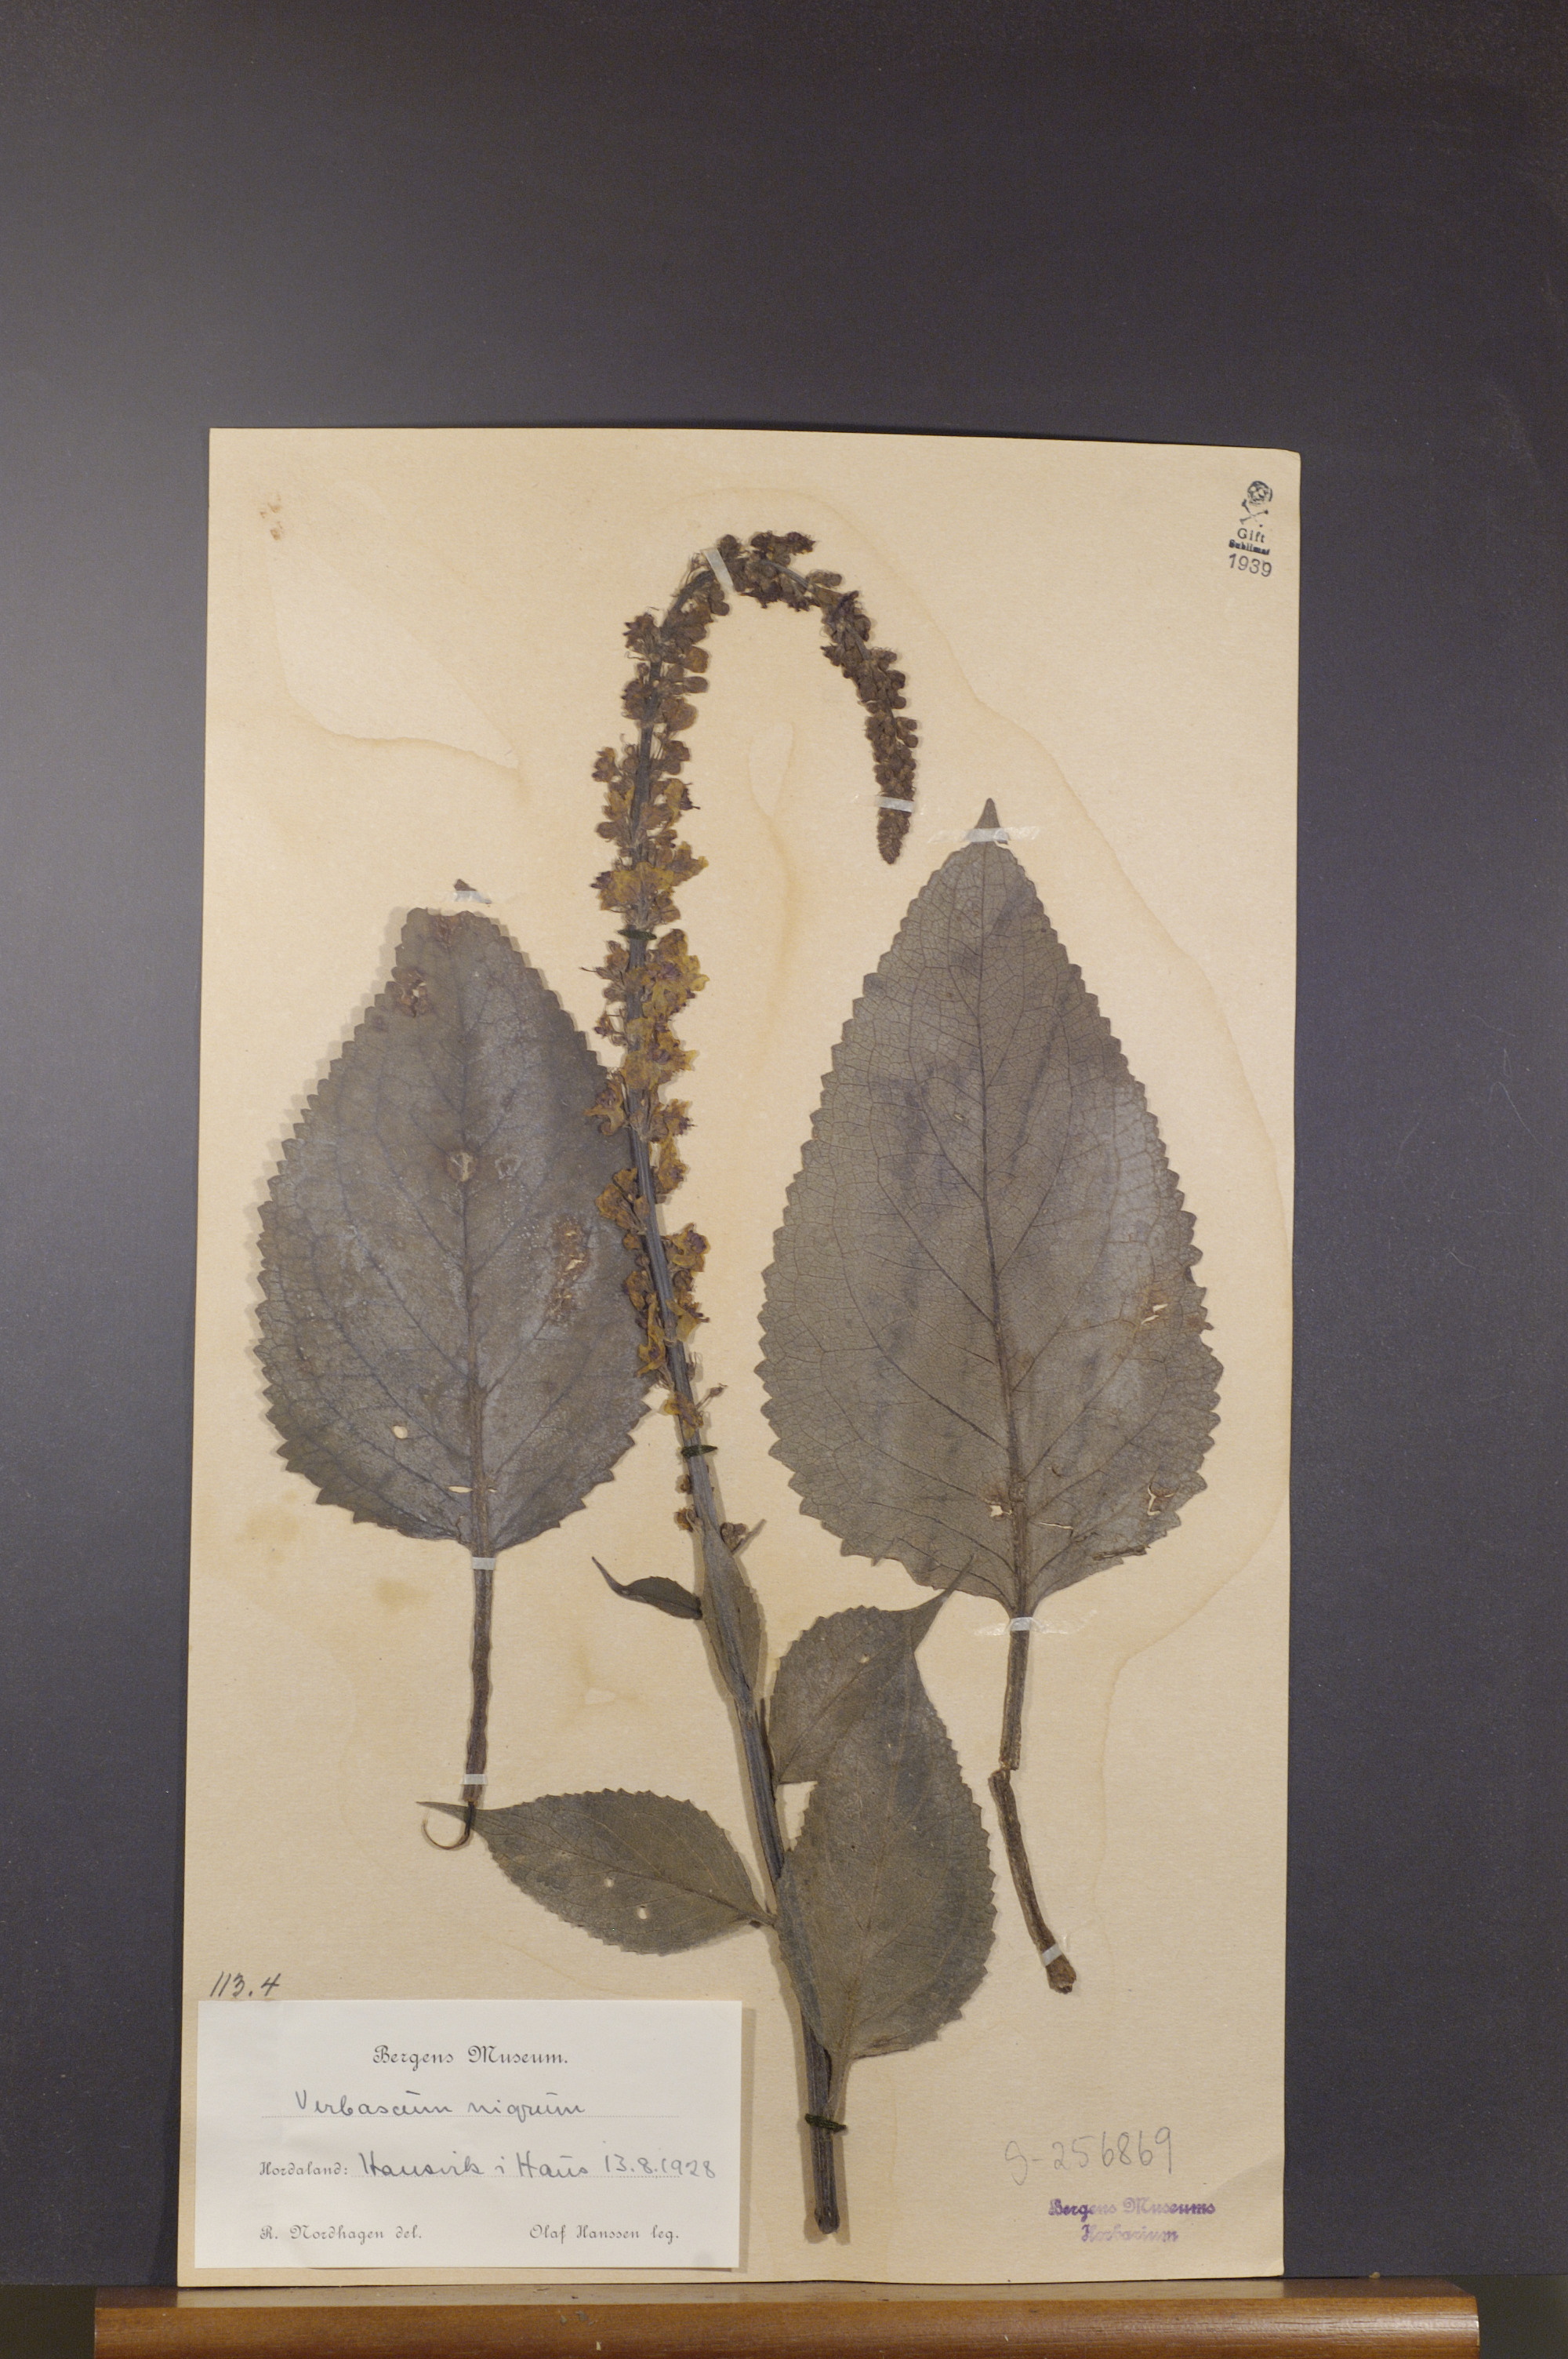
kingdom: Plantae
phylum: Tracheophyta
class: Magnoliopsida
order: Lamiales
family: Scrophulariaceae
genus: Verbascum
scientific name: Verbascum nigrum
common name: Dark mullein
